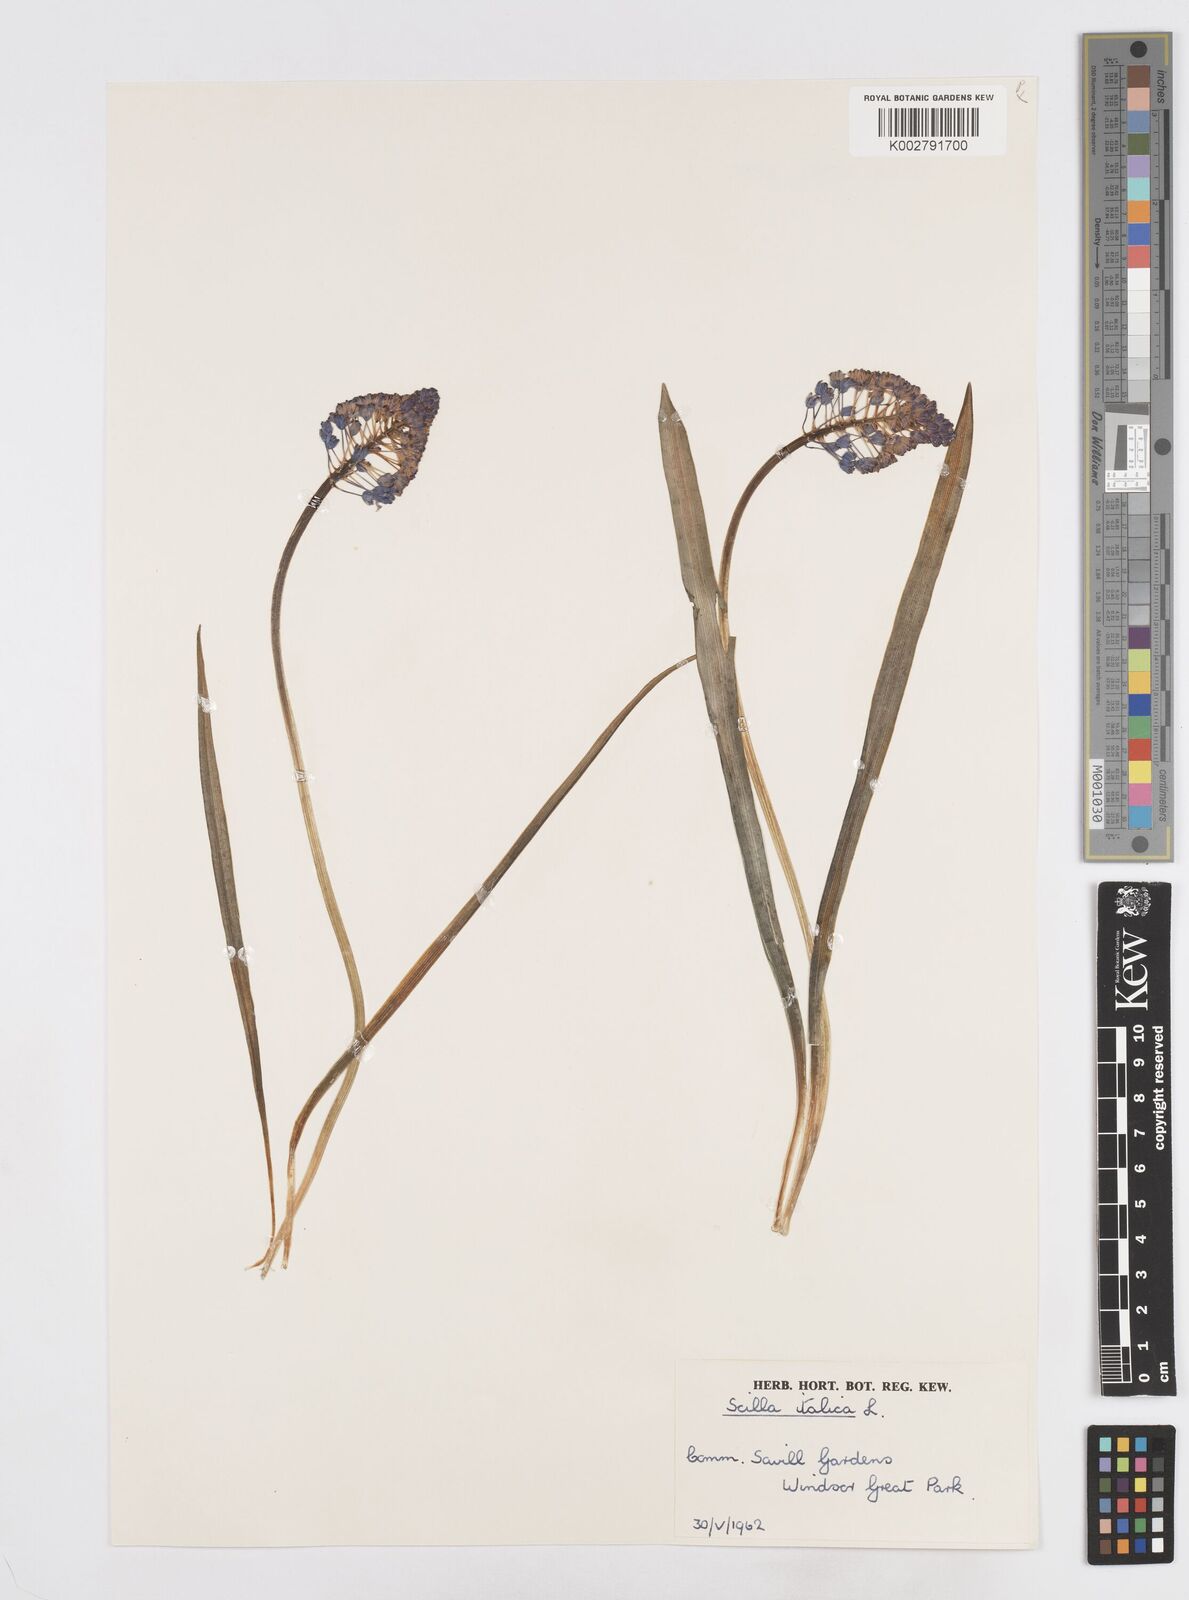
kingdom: Plantae
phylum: Tracheophyta
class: Liliopsida
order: Asparagales
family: Asparagaceae
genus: Hyacinthoides
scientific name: Hyacinthoides italica
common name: Italian bluebell
